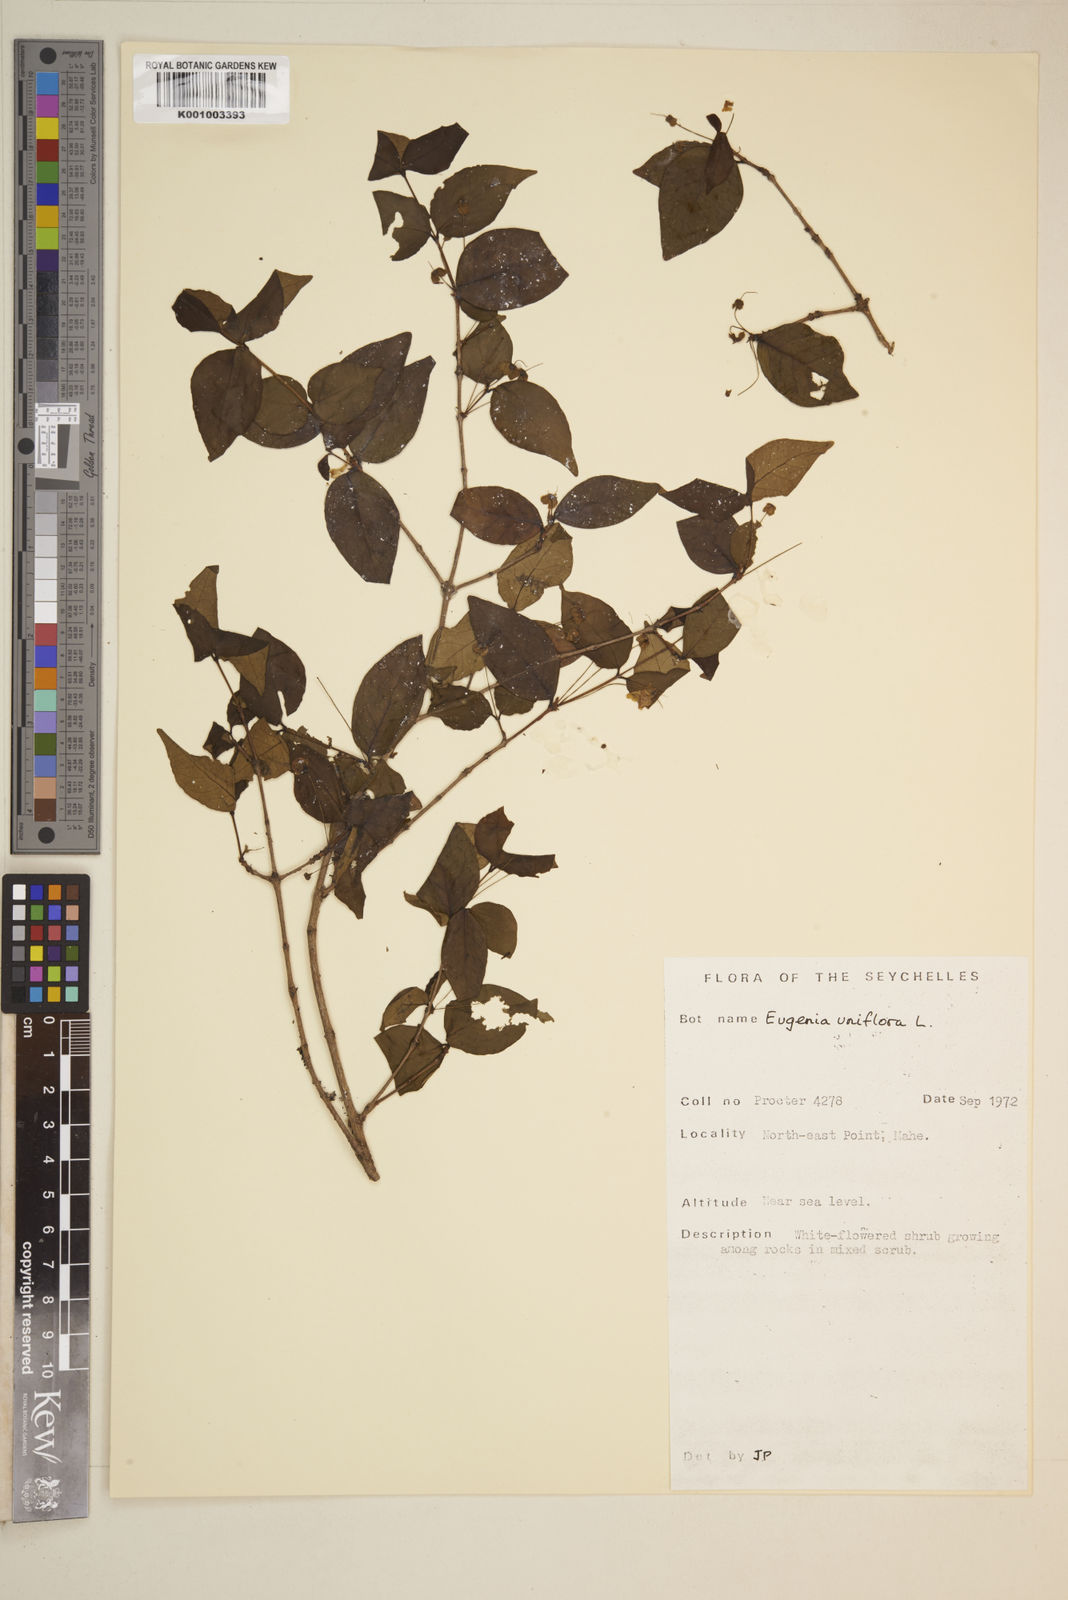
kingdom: Plantae
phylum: Tracheophyta
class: Magnoliopsida
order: Myrtales
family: Myrtaceae
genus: Eugenia
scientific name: Eugenia uniflora
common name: Surinam cherry
